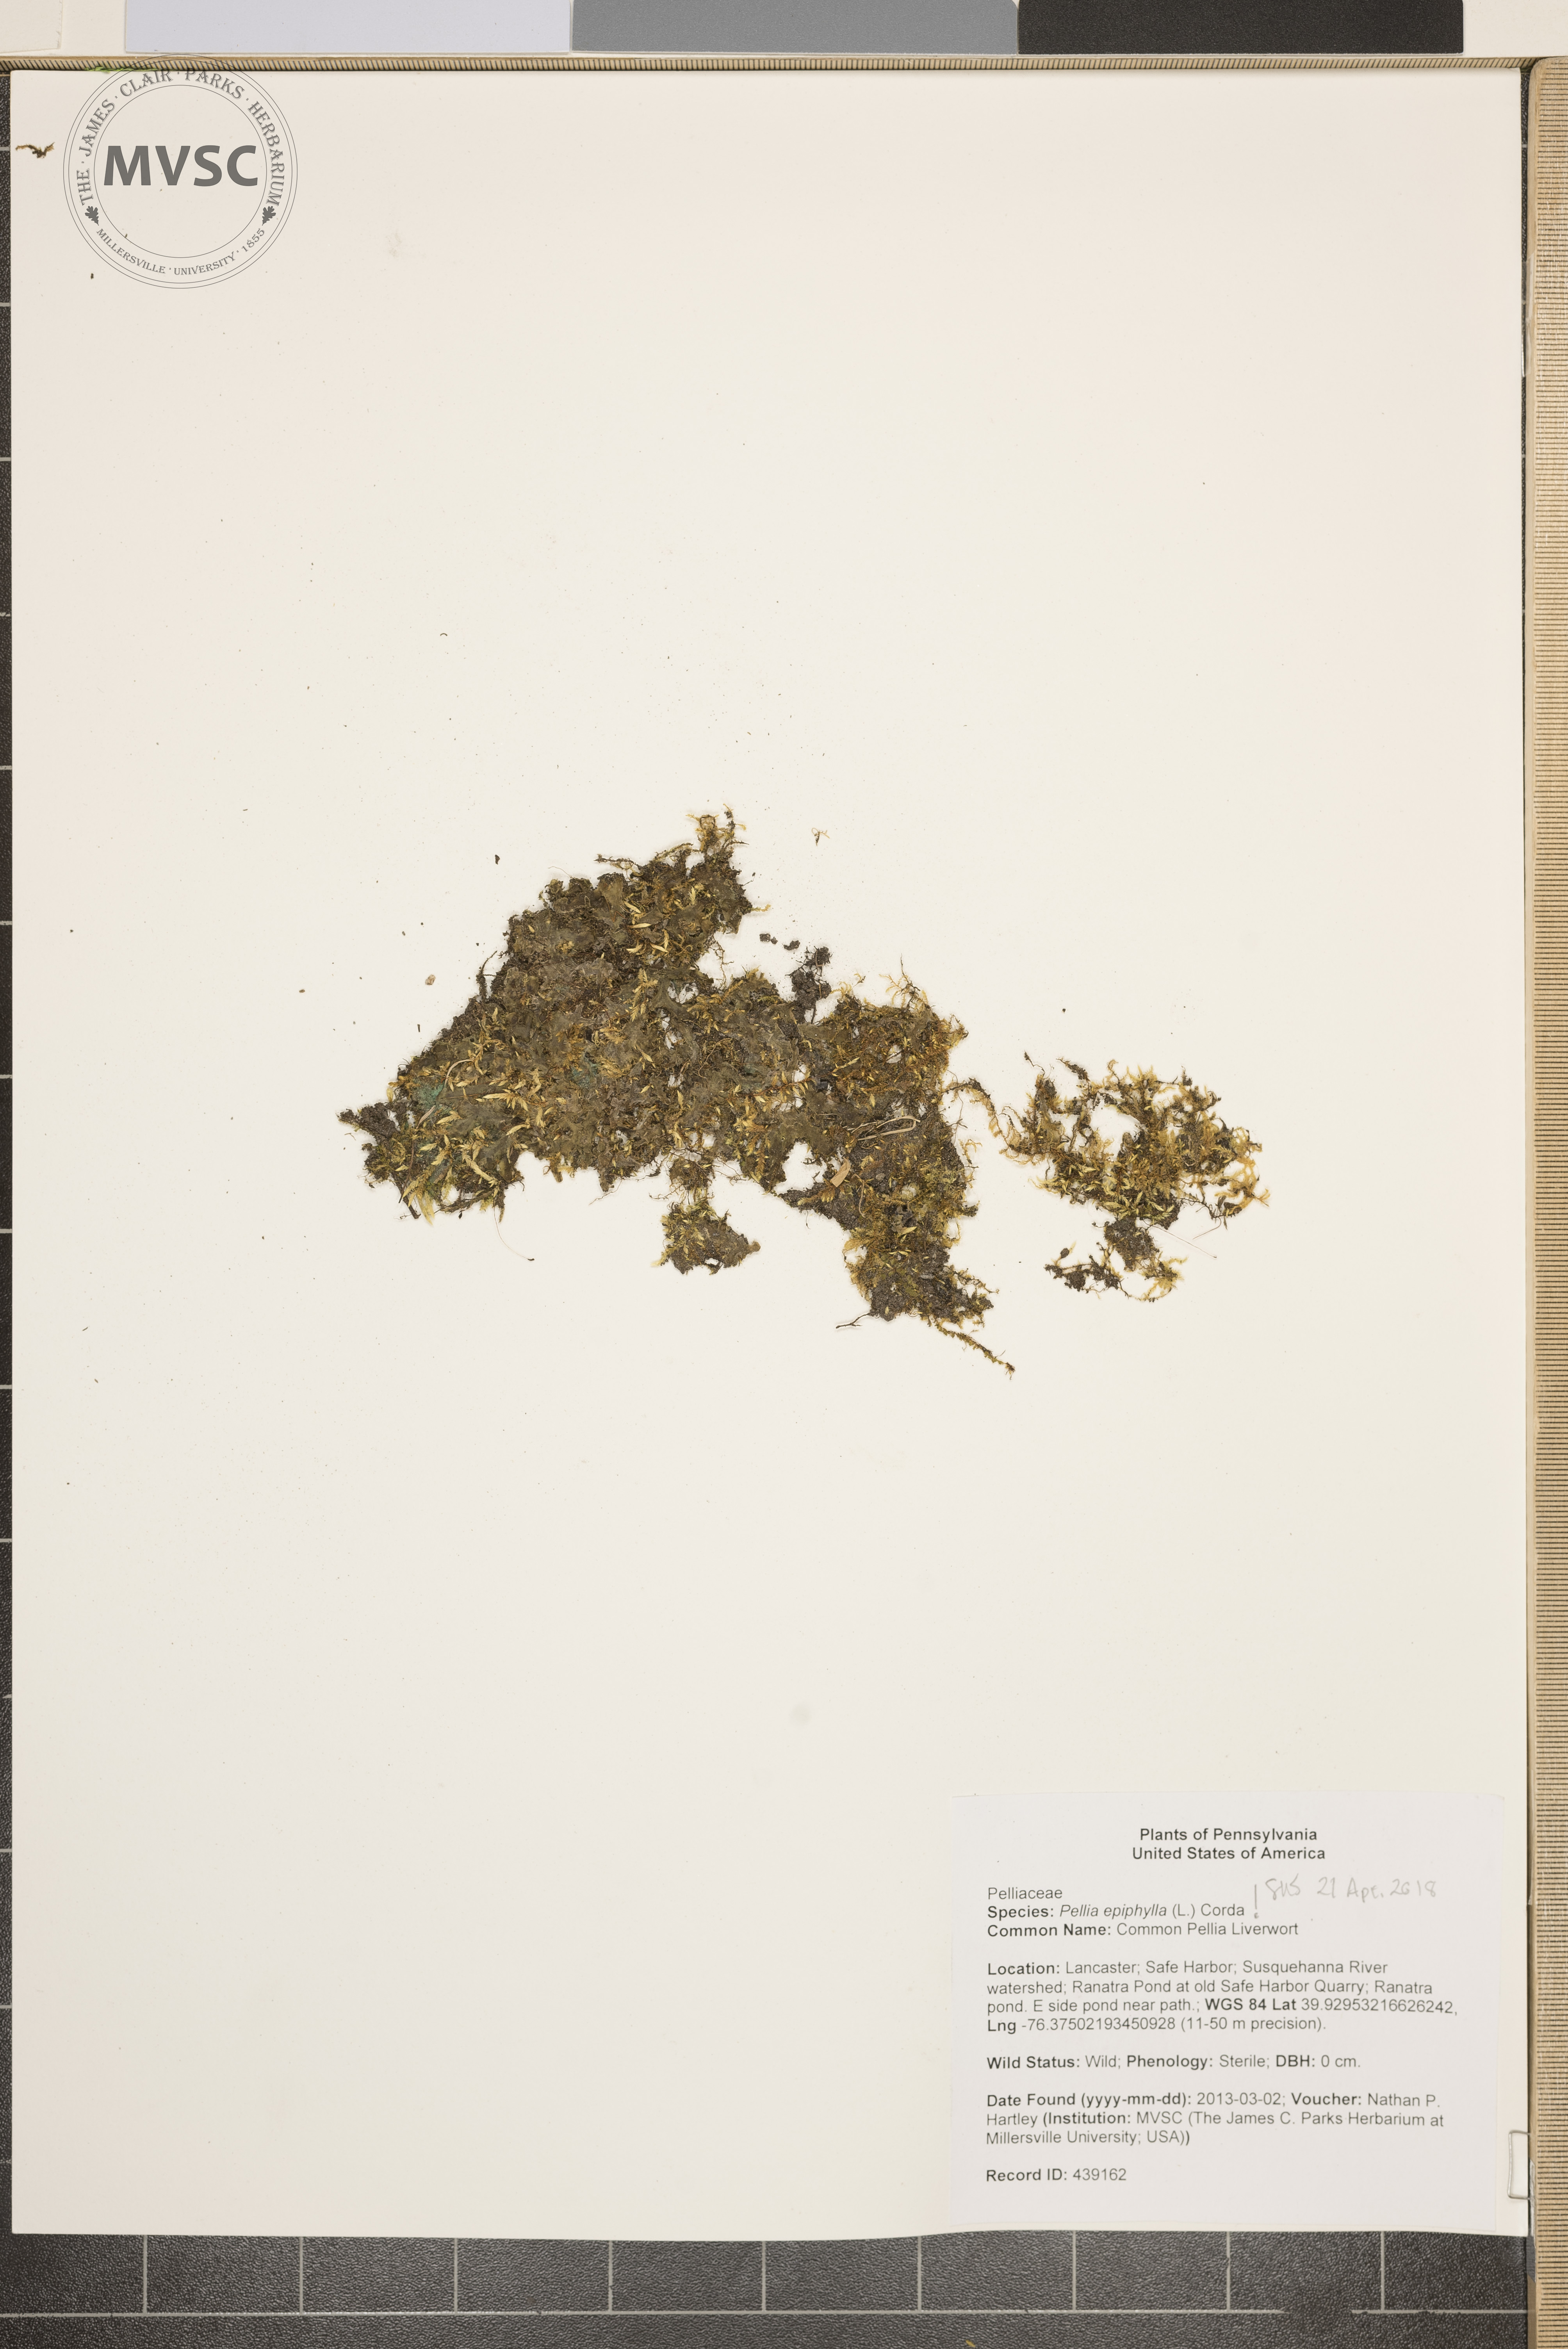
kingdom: Plantae
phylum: Marchantiophyta
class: Jungermanniopsida
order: Pelliales
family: Pelliaceae
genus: Pellia
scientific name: Pellia epiphylla
